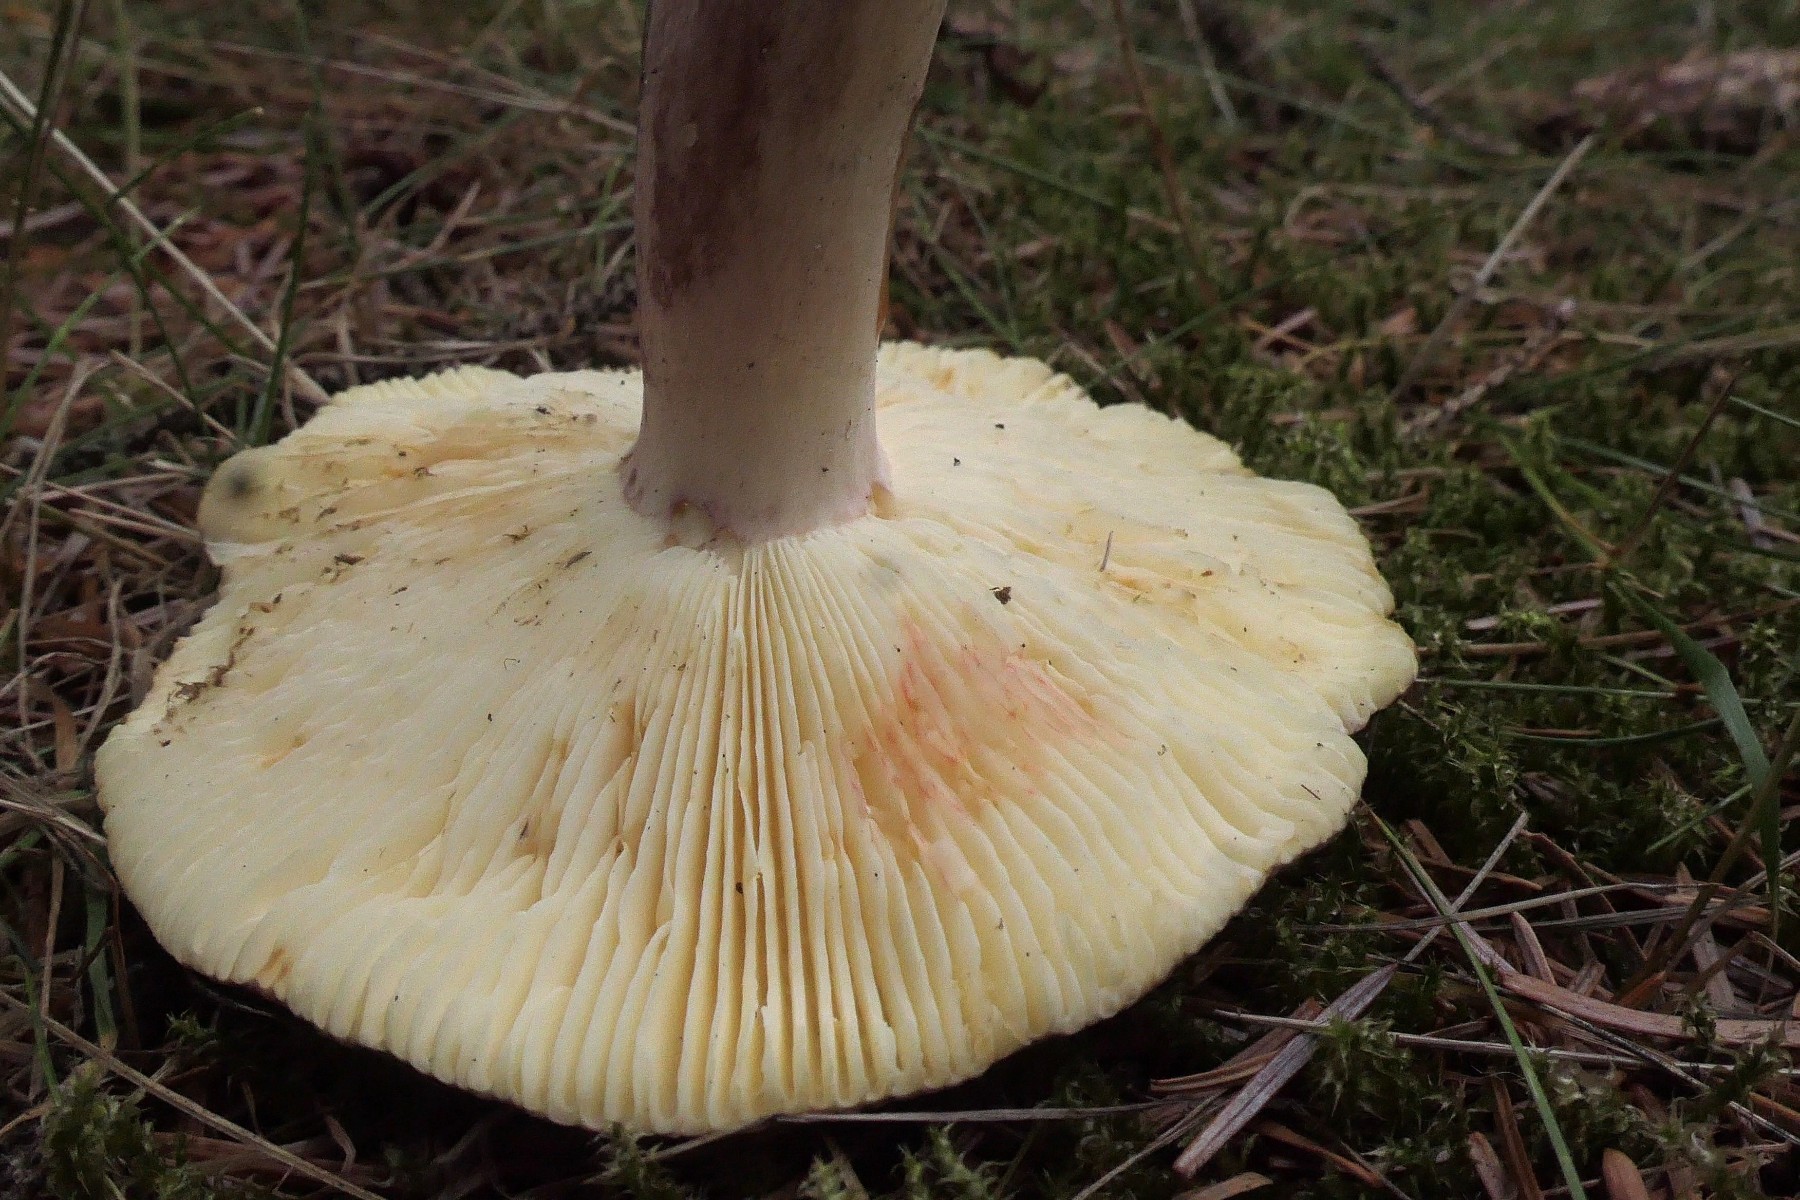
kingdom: Fungi
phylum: Basidiomycota
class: Agaricomycetes
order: Russulales
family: Russulaceae
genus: Russula
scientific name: Russula sardonia
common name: citronbladet skørhat
